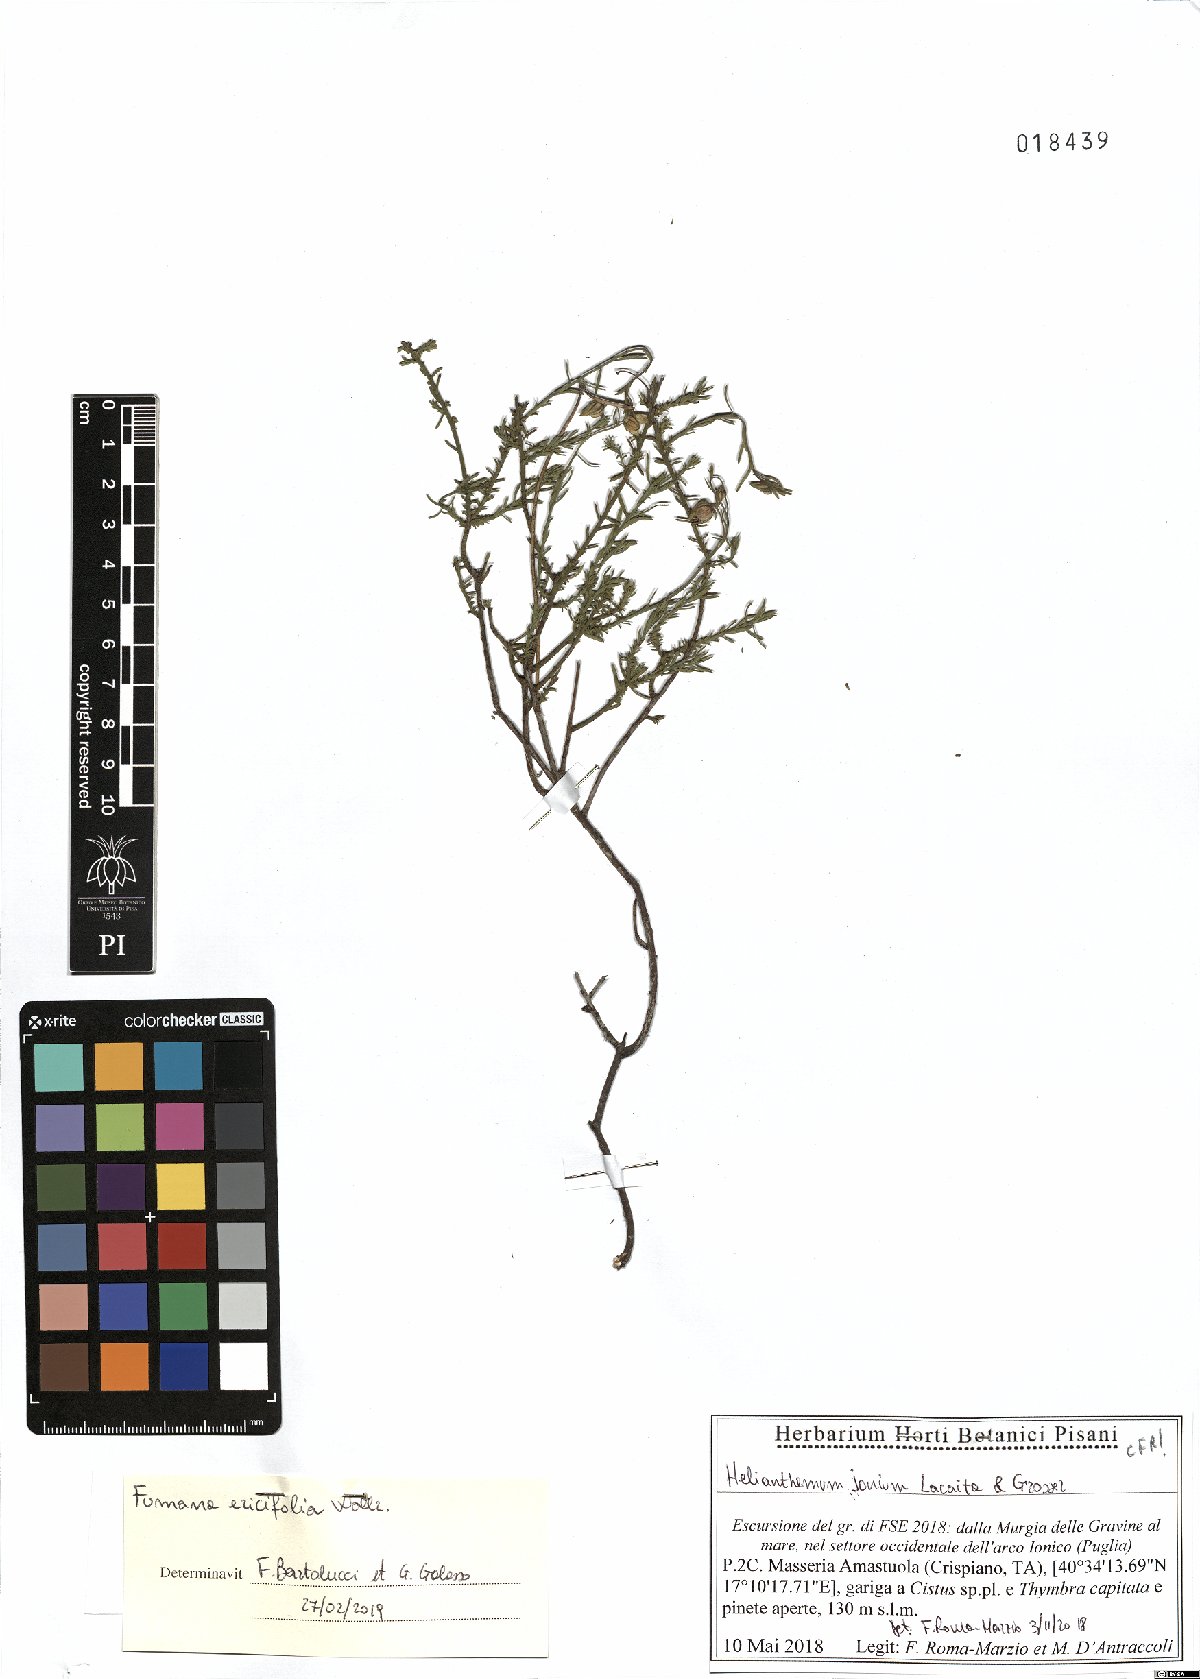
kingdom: Plantae
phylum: Tracheophyta
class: Magnoliopsida
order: Malvales
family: Cistaceae
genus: Fumana
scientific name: Fumana ericifolia
